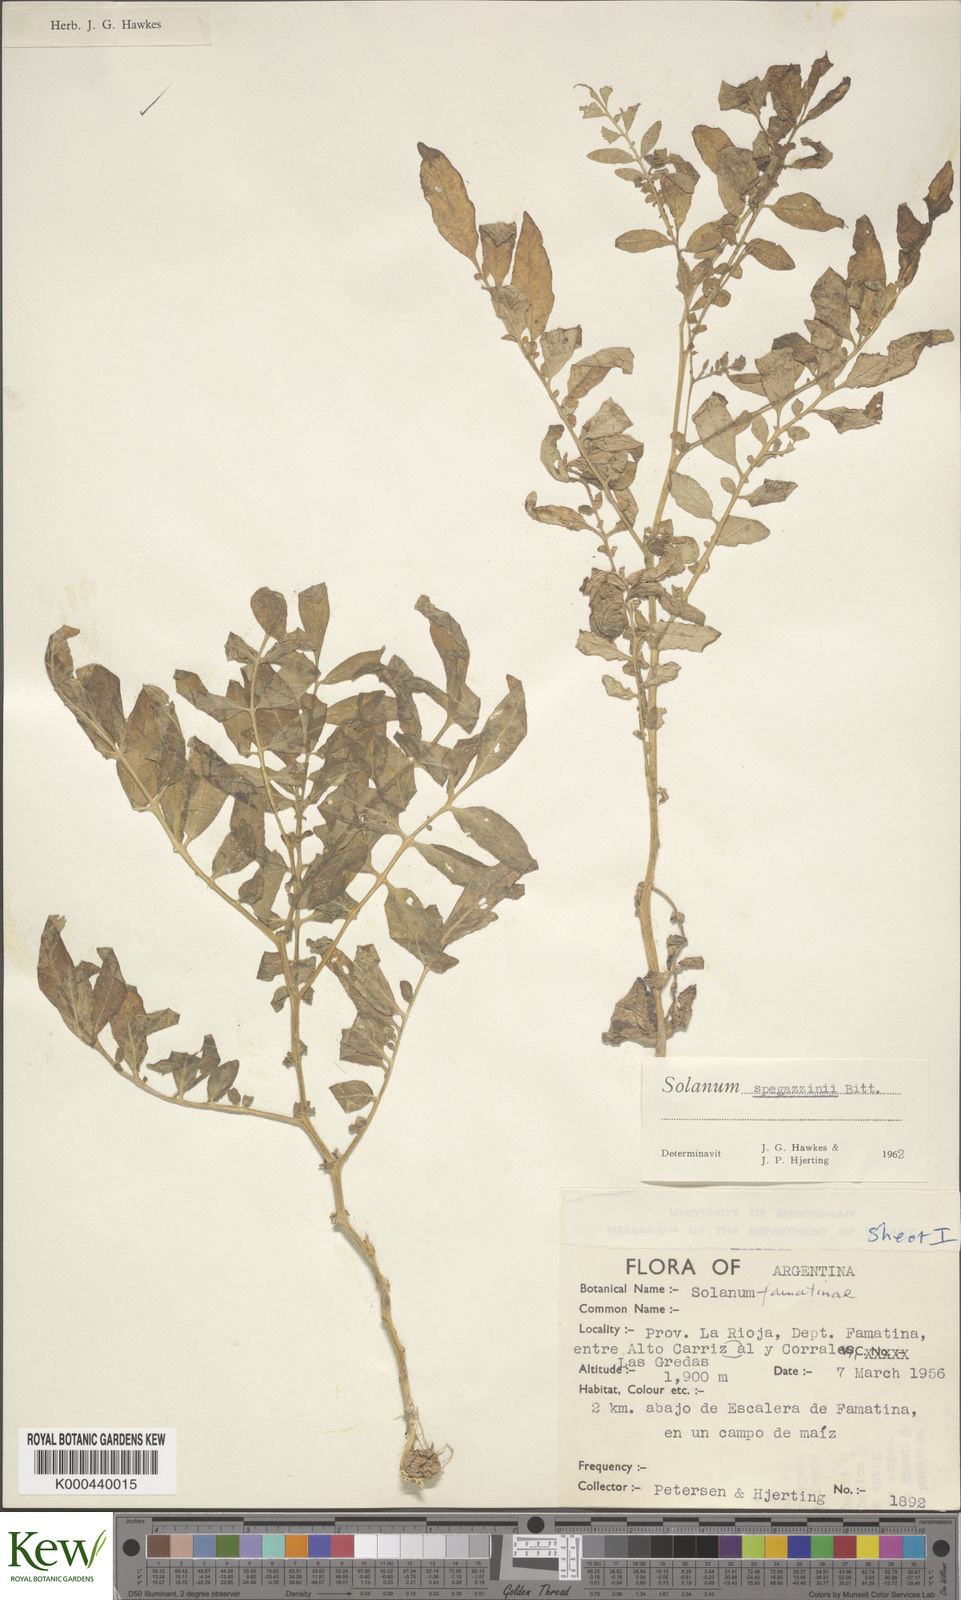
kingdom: Plantae
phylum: Tracheophyta
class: Magnoliopsida
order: Solanales
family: Solanaceae
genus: Solanum
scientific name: Solanum brevicaule
